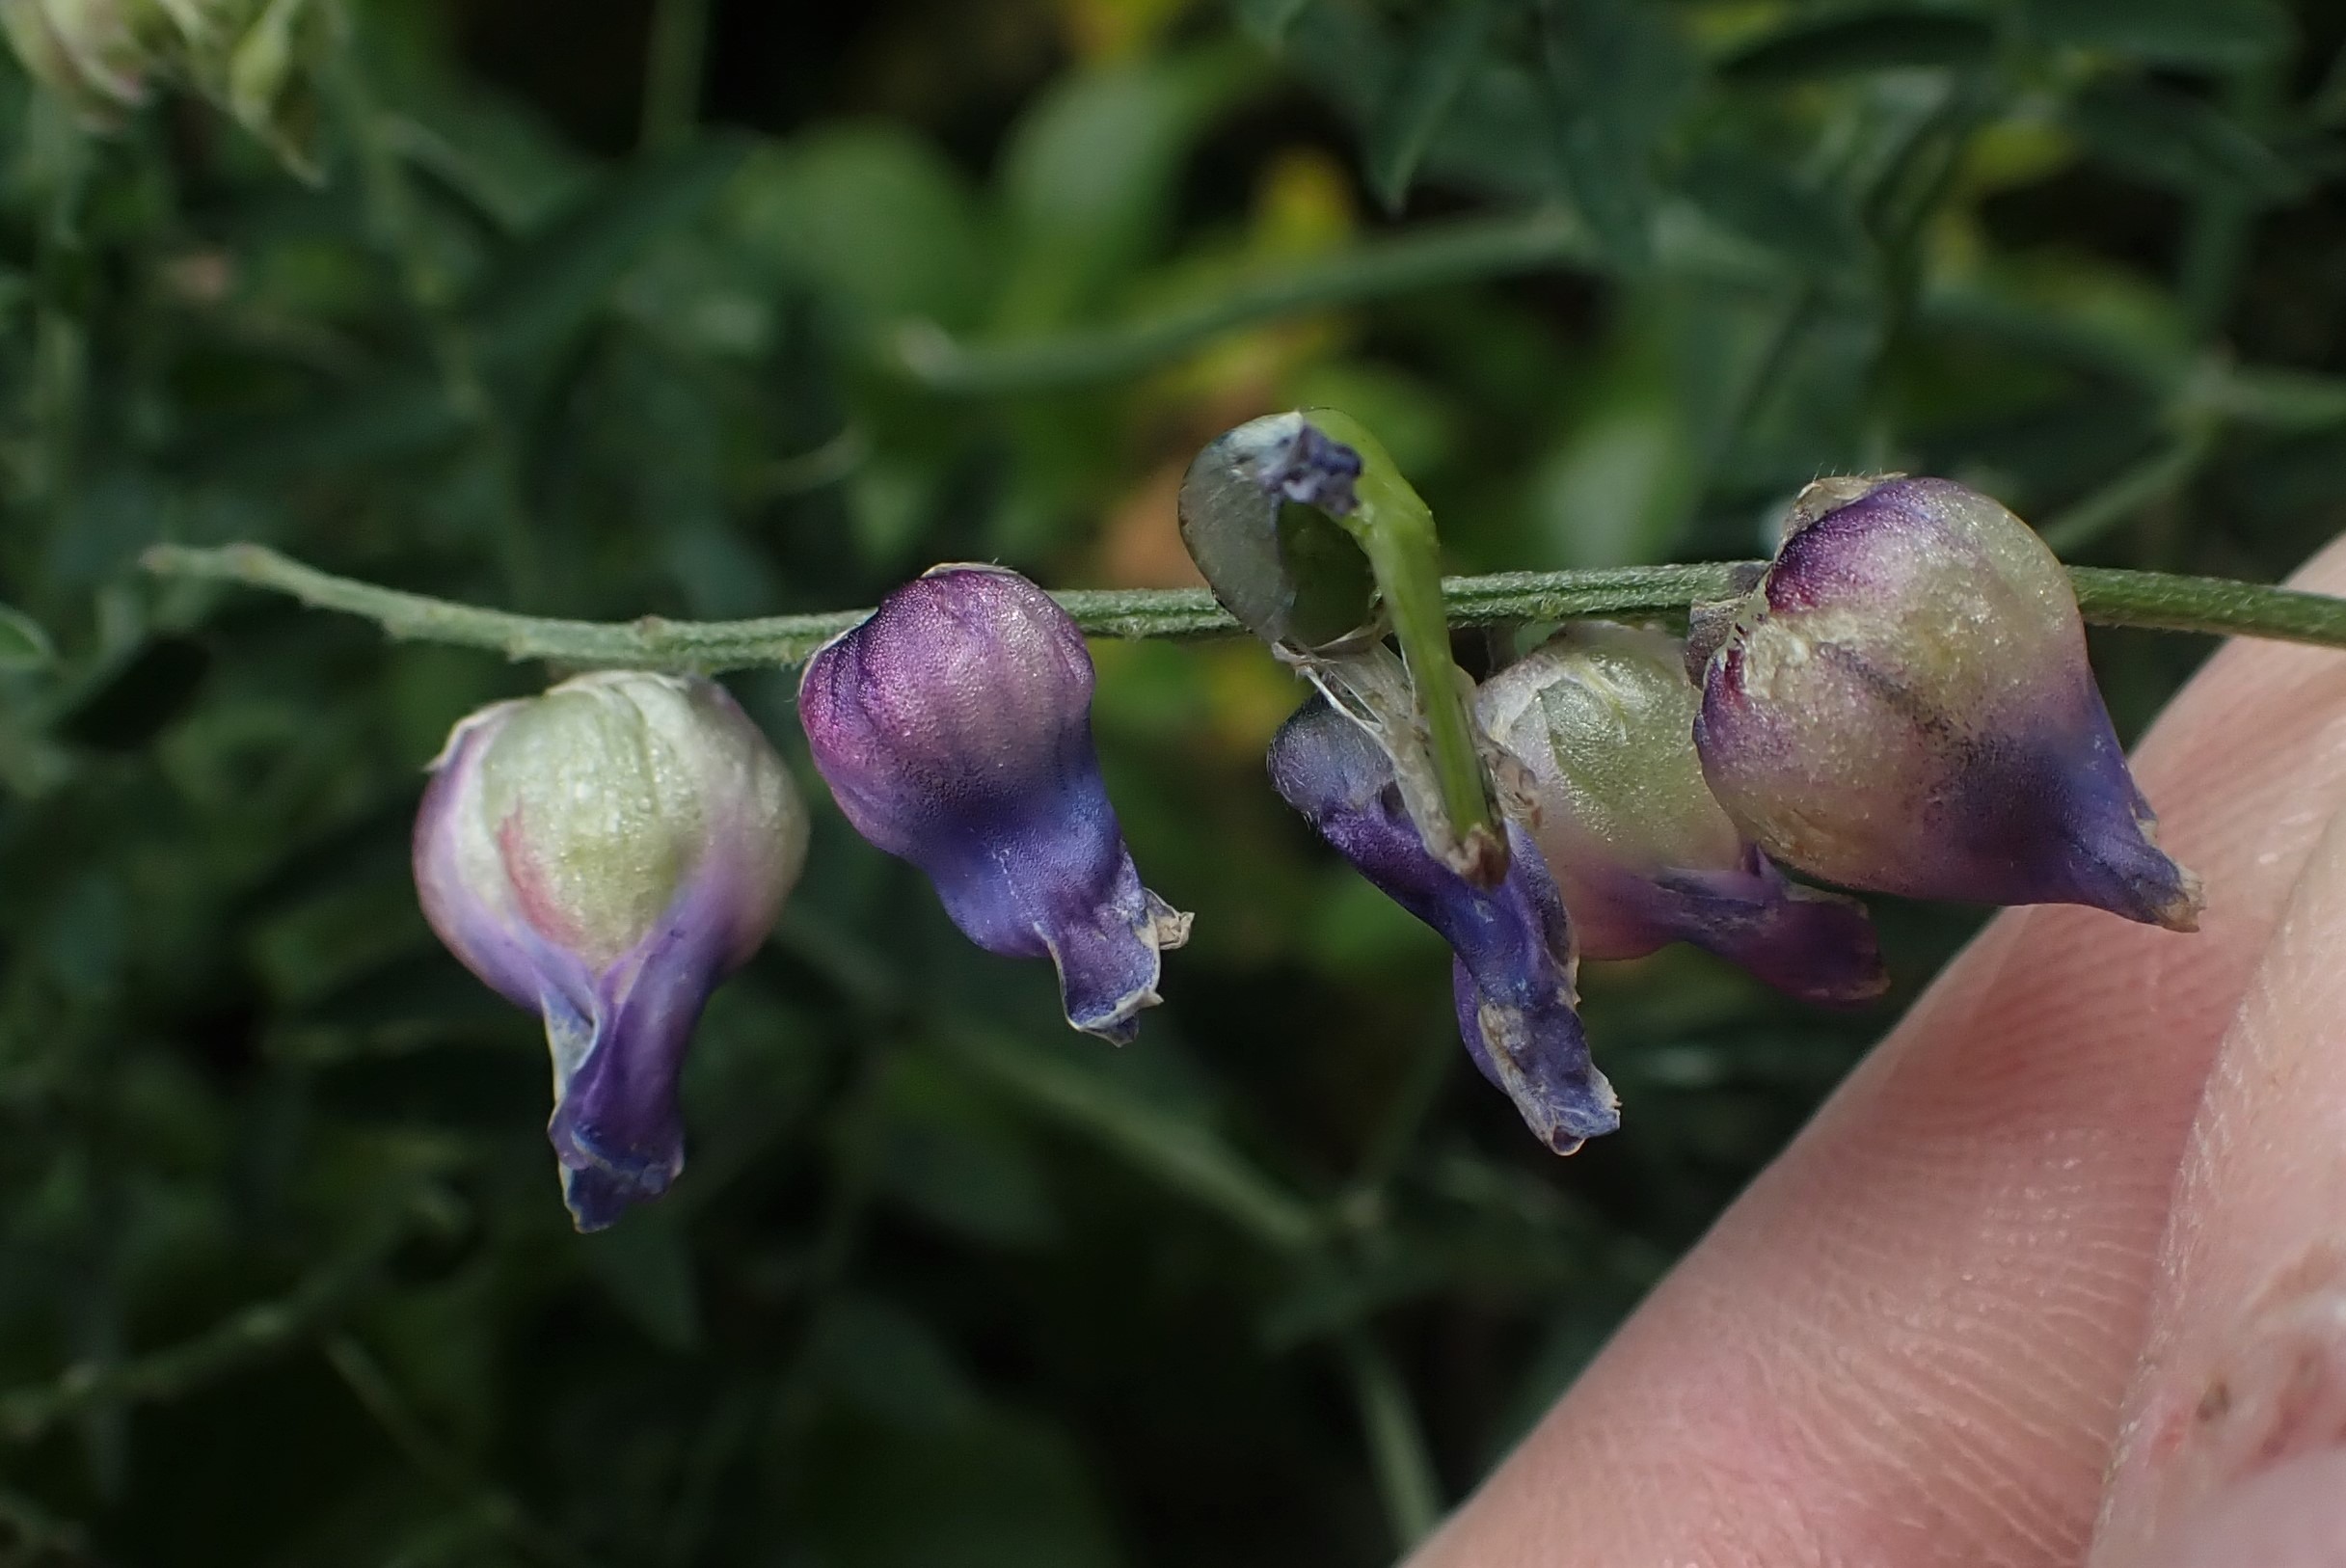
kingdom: Animalia
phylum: Arthropoda
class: Insecta
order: Diptera
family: Cecidomyiidae
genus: Contarinia
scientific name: Contarinia craccae
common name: Vikkeblomstgalmyg
